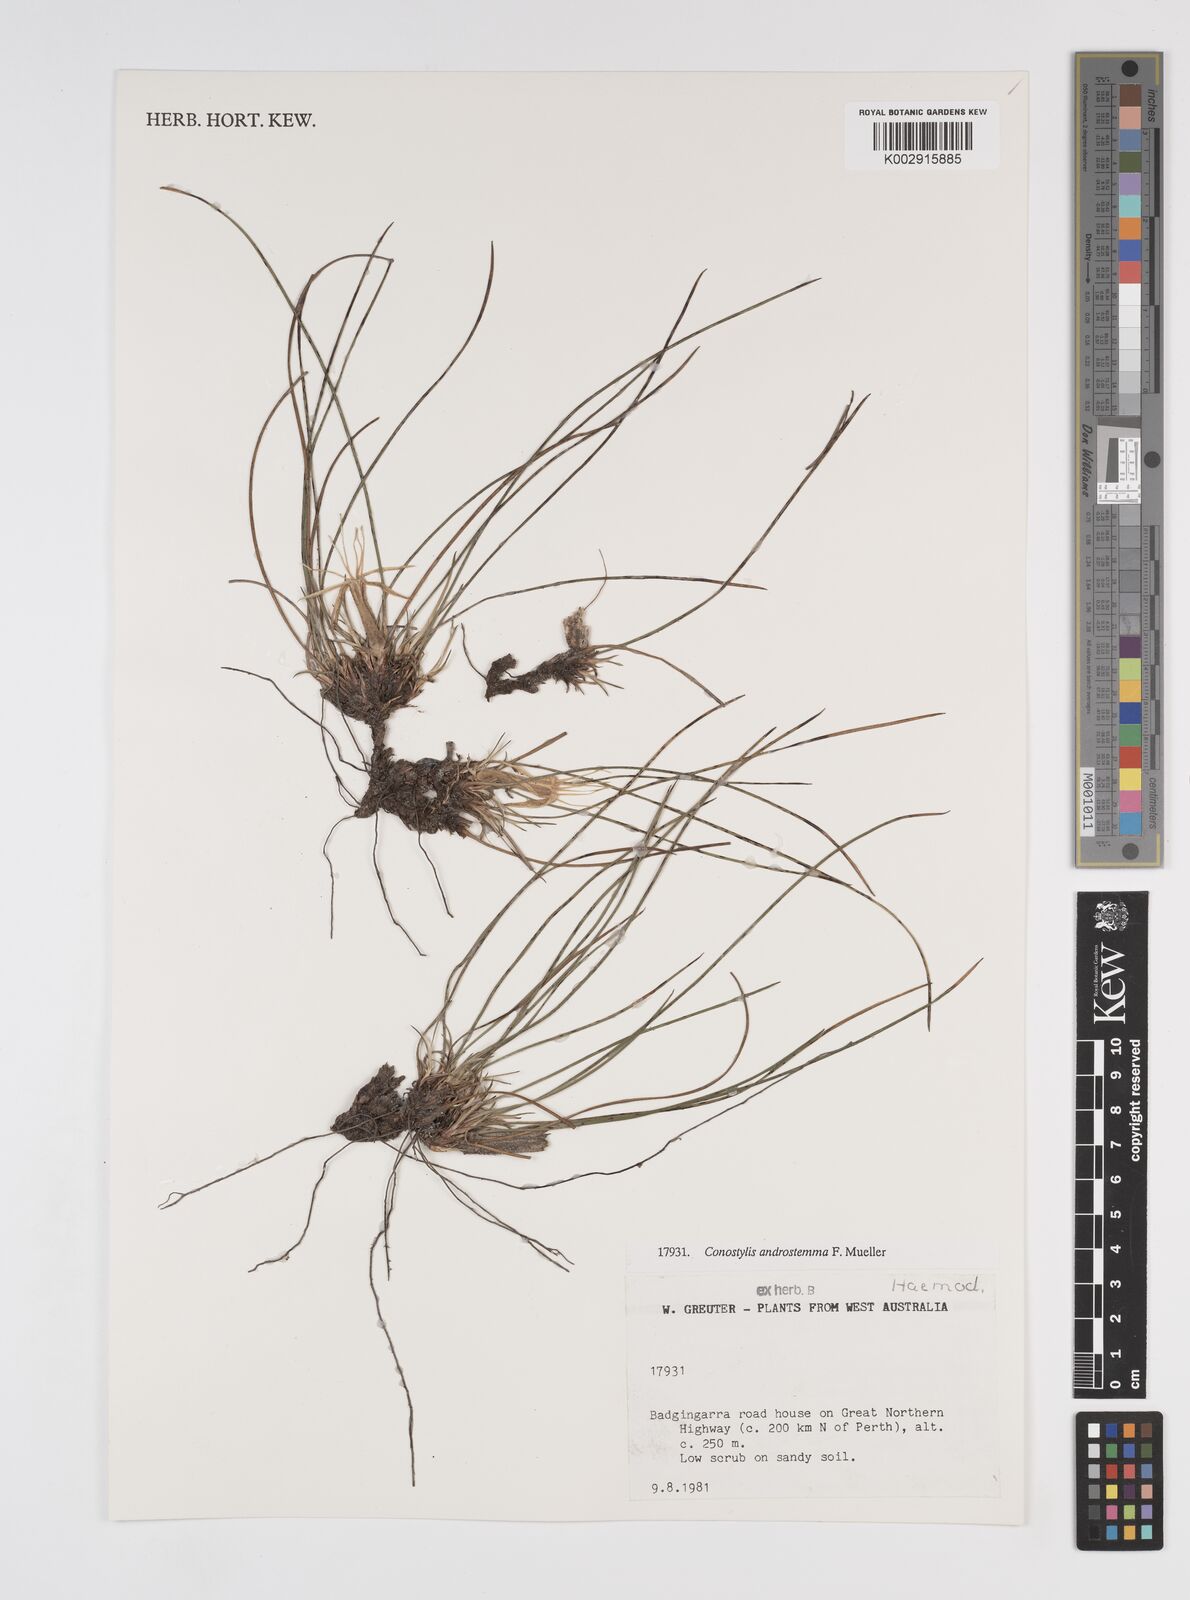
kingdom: Plantae
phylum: Tracheophyta
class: Liliopsida
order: Commelinales
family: Haemodoraceae
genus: Conostylis
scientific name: Conostylis androstemma
